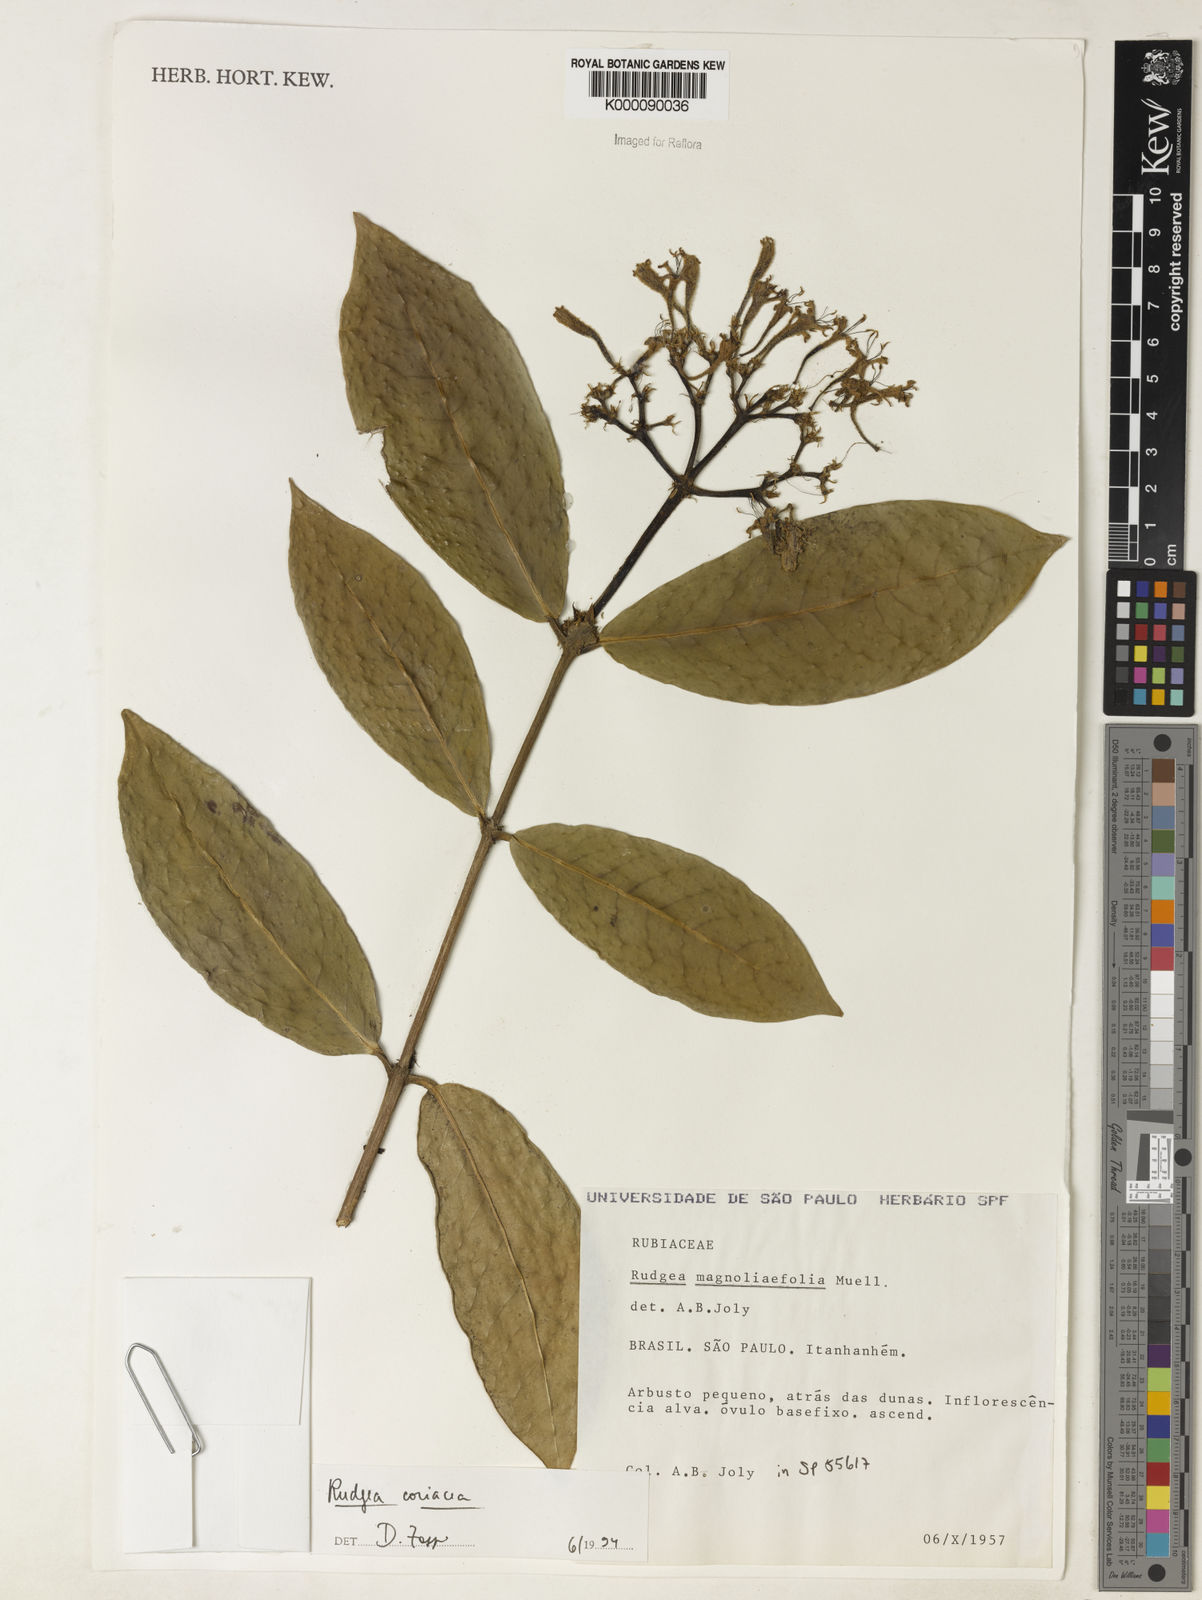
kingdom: Plantae
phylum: Tracheophyta
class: Magnoliopsida
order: Gentianales
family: Rubiaceae
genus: Rudgea
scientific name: Rudgea coriacea
